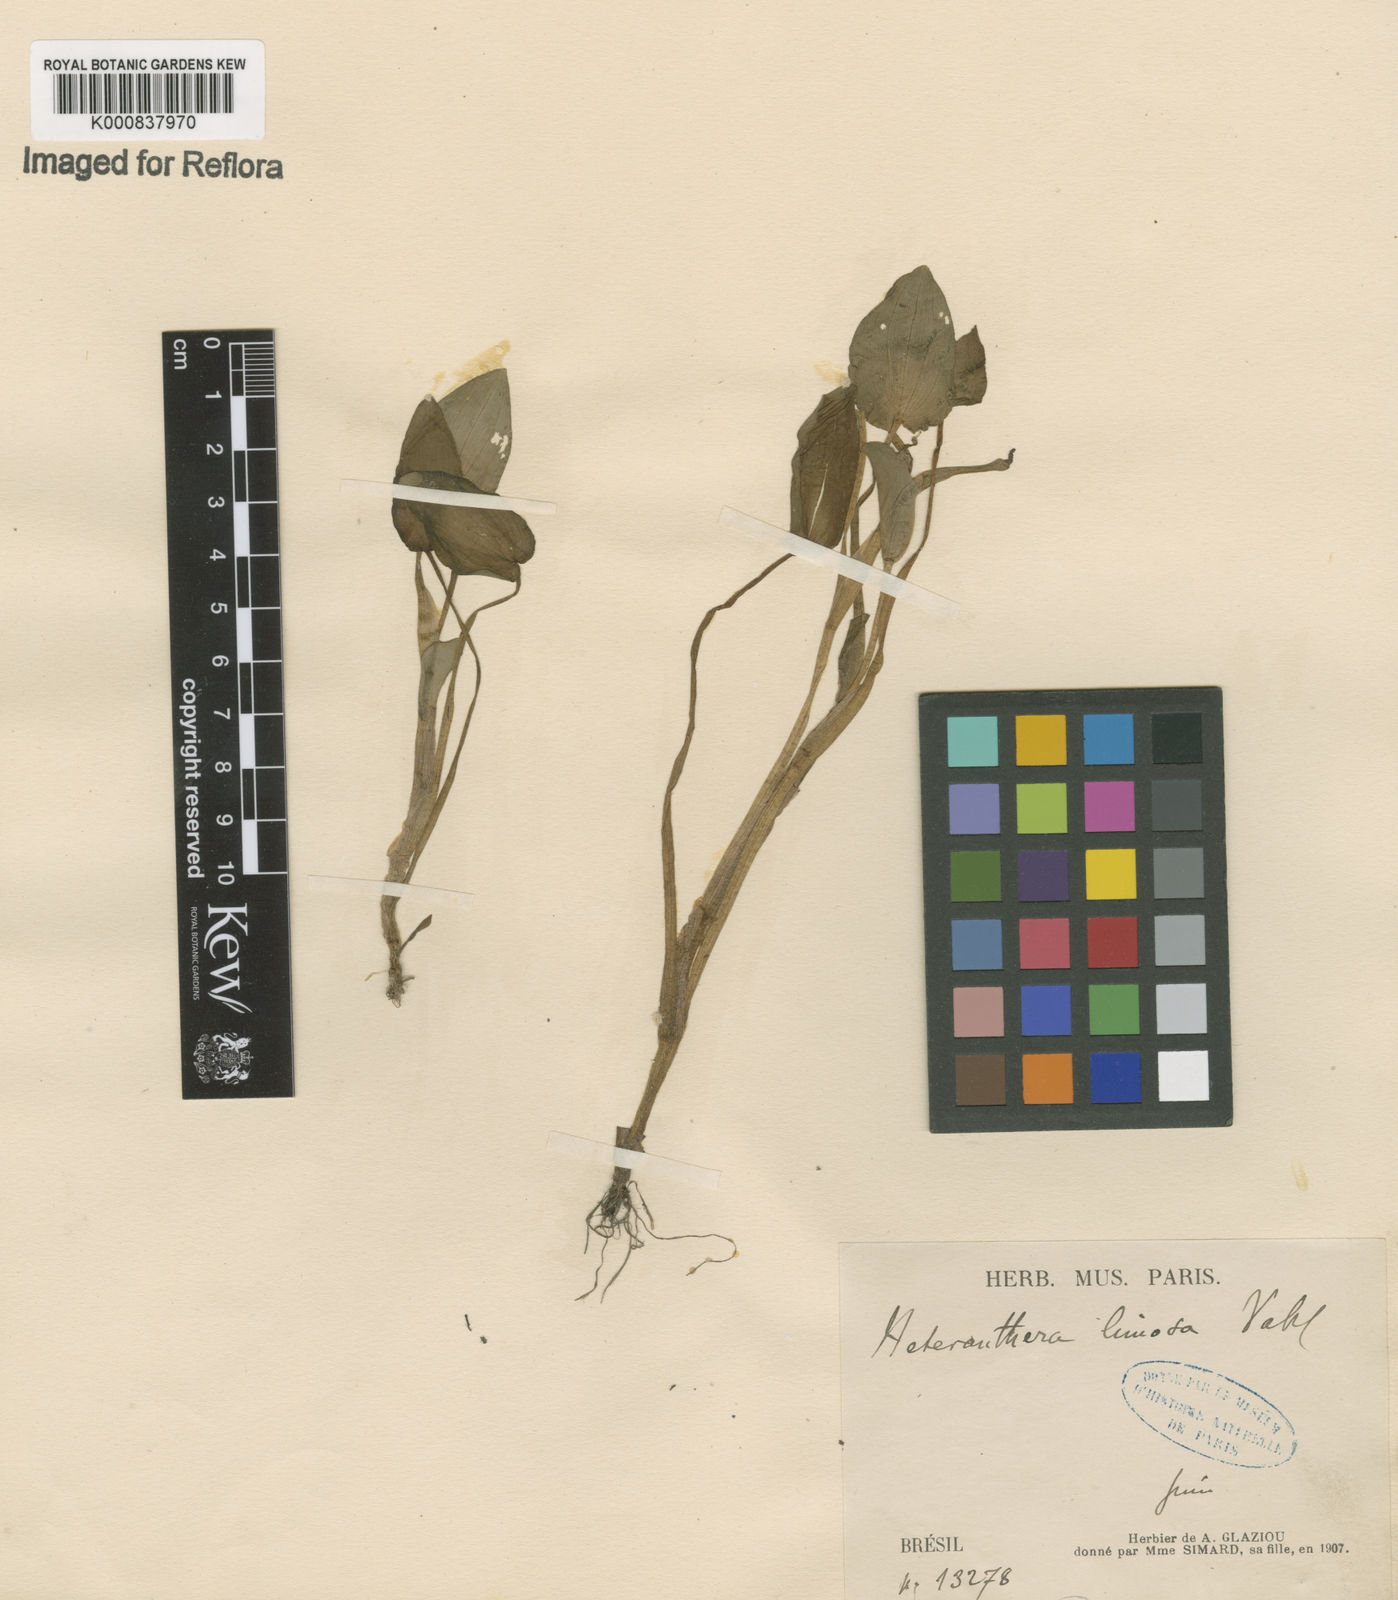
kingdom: Plantae
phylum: Tracheophyta
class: Liliopsida
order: Commelinales
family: Pontederiaceae
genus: Heteranthera
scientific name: Heteranthera oblongifolia
